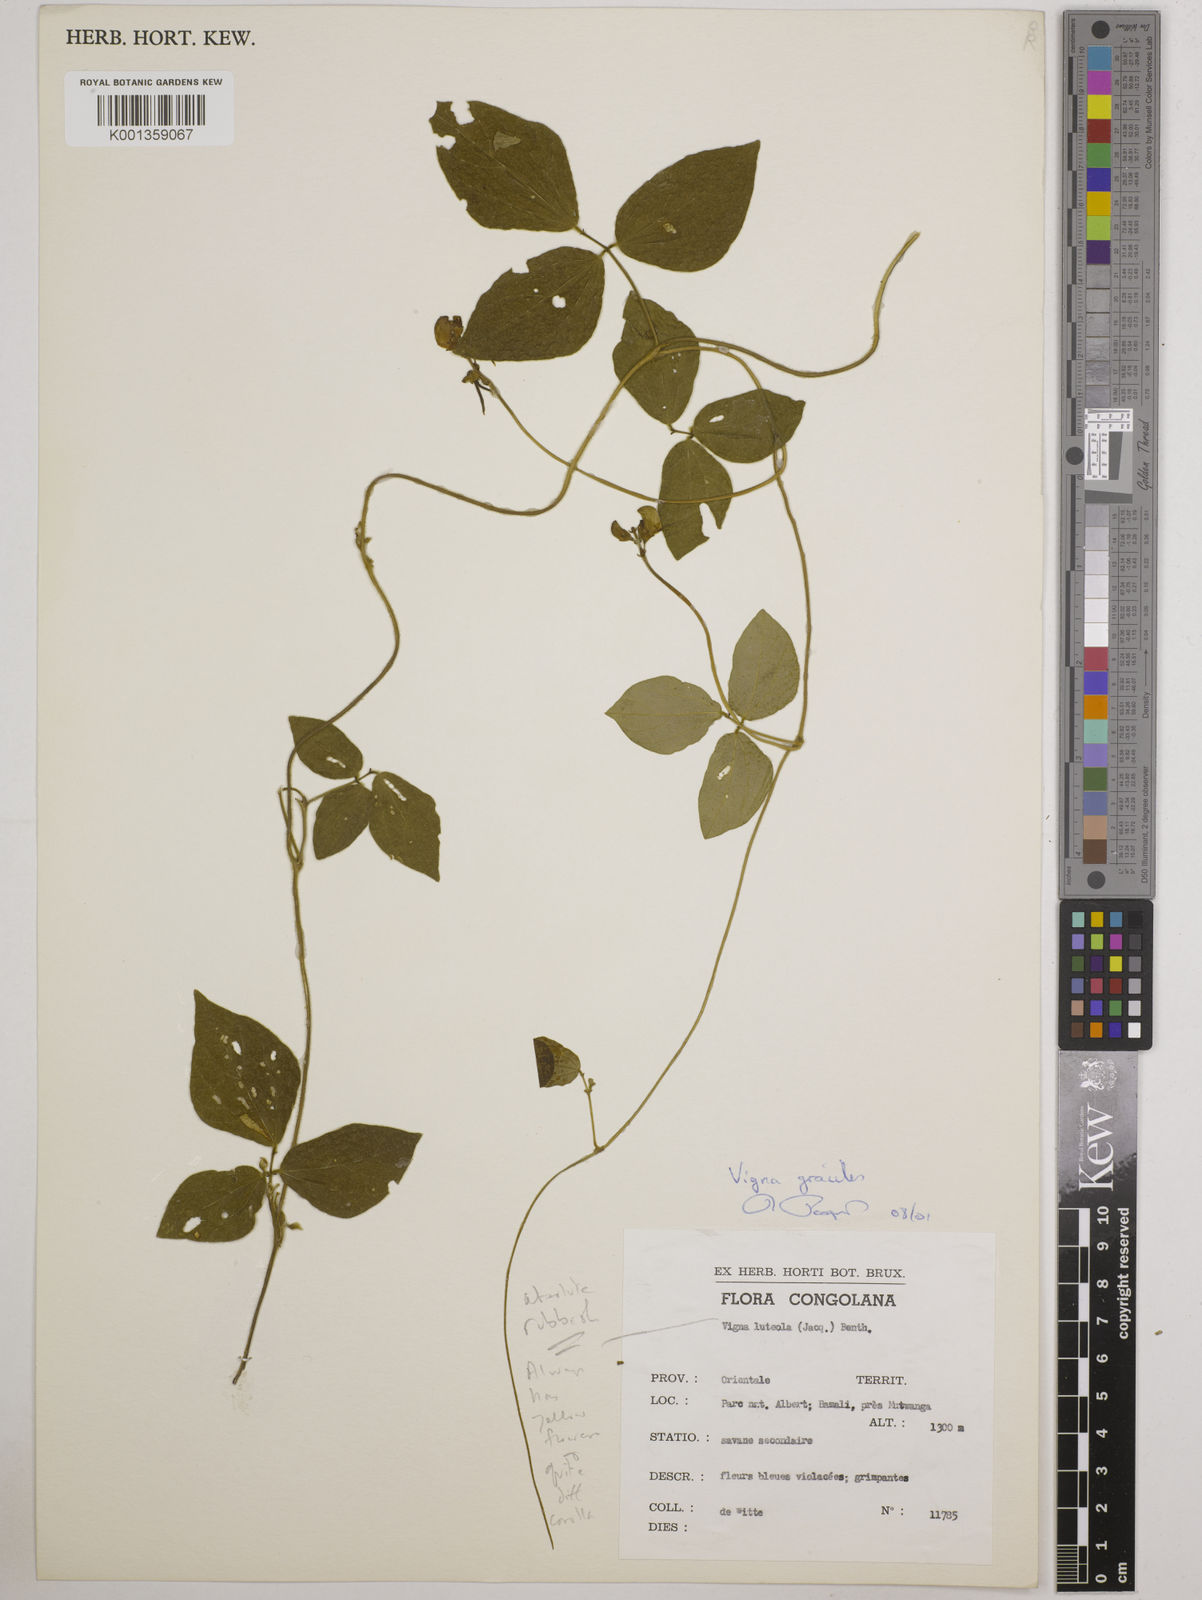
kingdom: Plantae
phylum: Tracheophyta
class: Magnoliopsida
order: Fabales
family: Fabaceae
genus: Vigna
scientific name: Vigna gracilis
